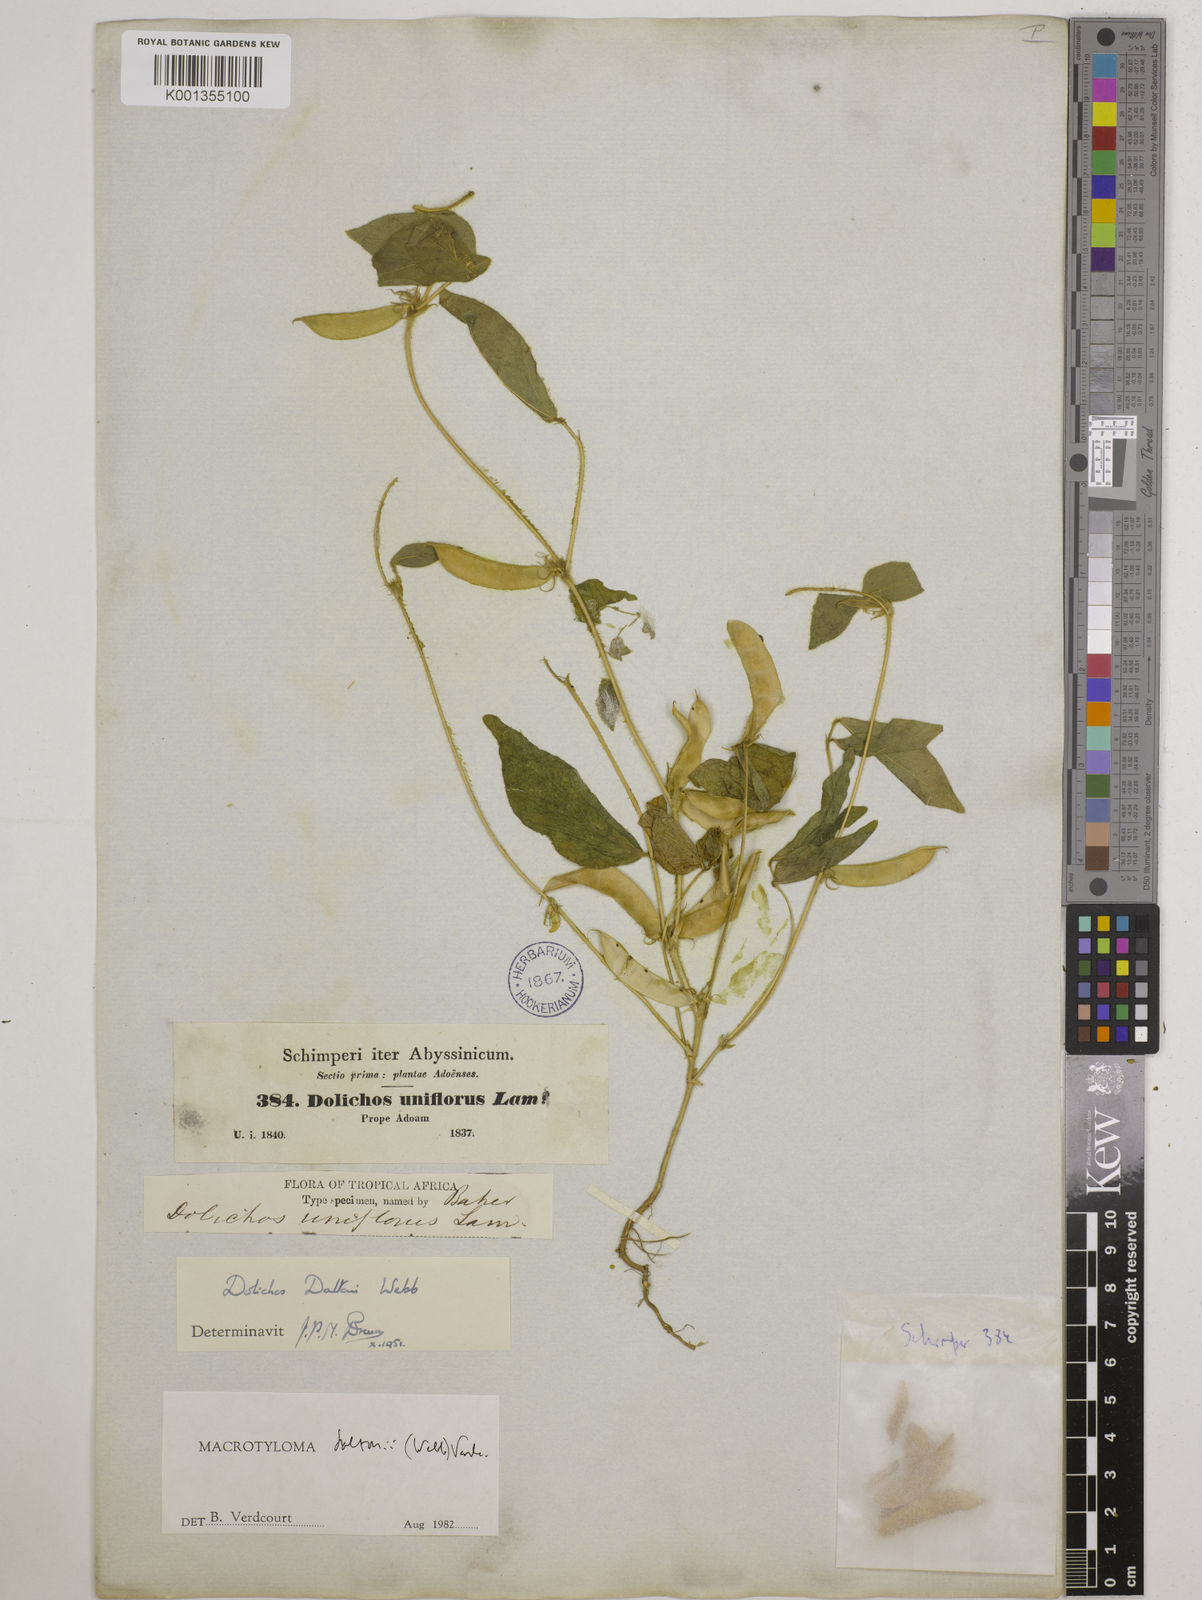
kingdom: Plantae
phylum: Tracheophyta
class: Magnoliopsida
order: Fabales
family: Fabaceae
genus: Macrotyloma
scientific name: Macrotyloma daltonii
